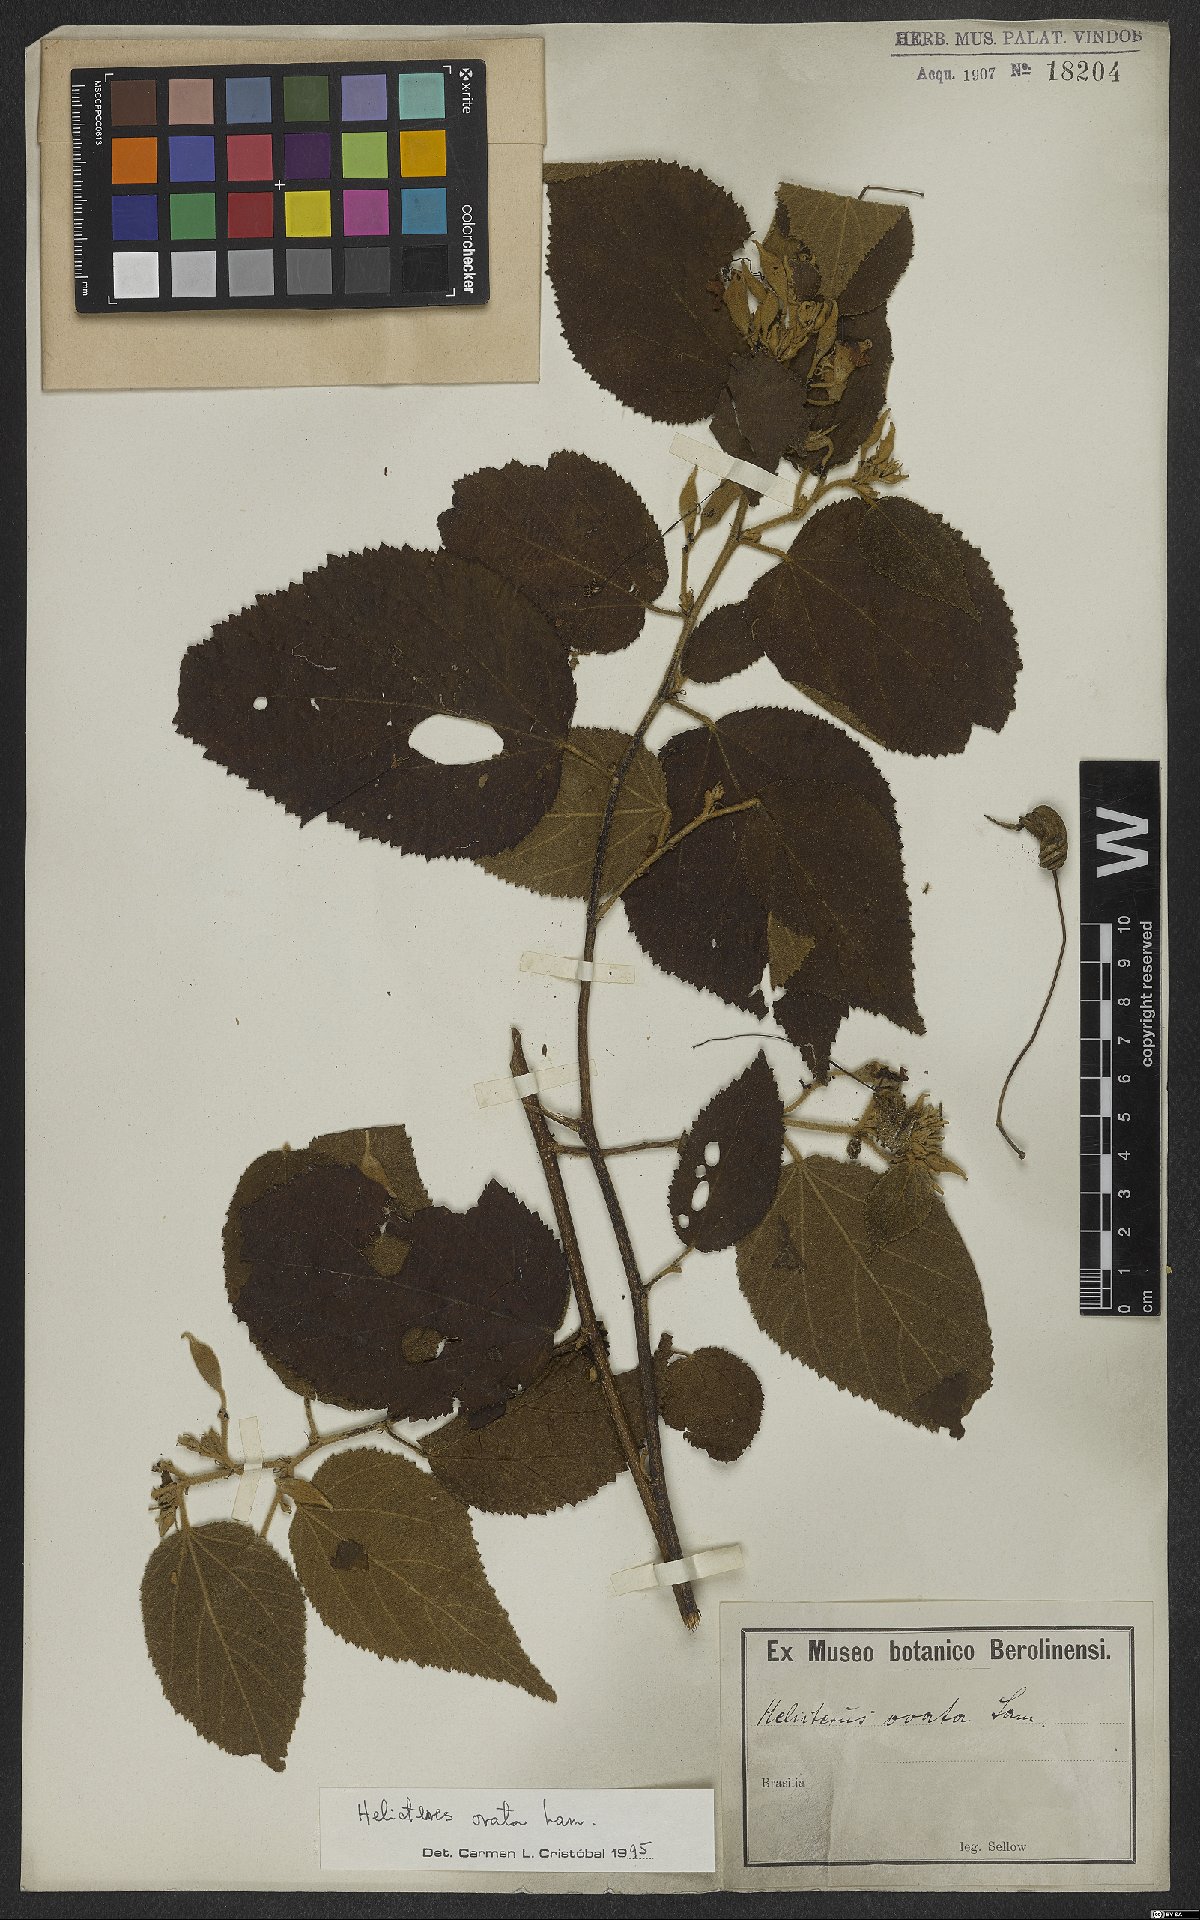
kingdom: Plantae
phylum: Tracheophyta
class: Magnoliopsida
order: Malvales
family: Malvaceae
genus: Helicteres
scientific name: Helicteres ovata
